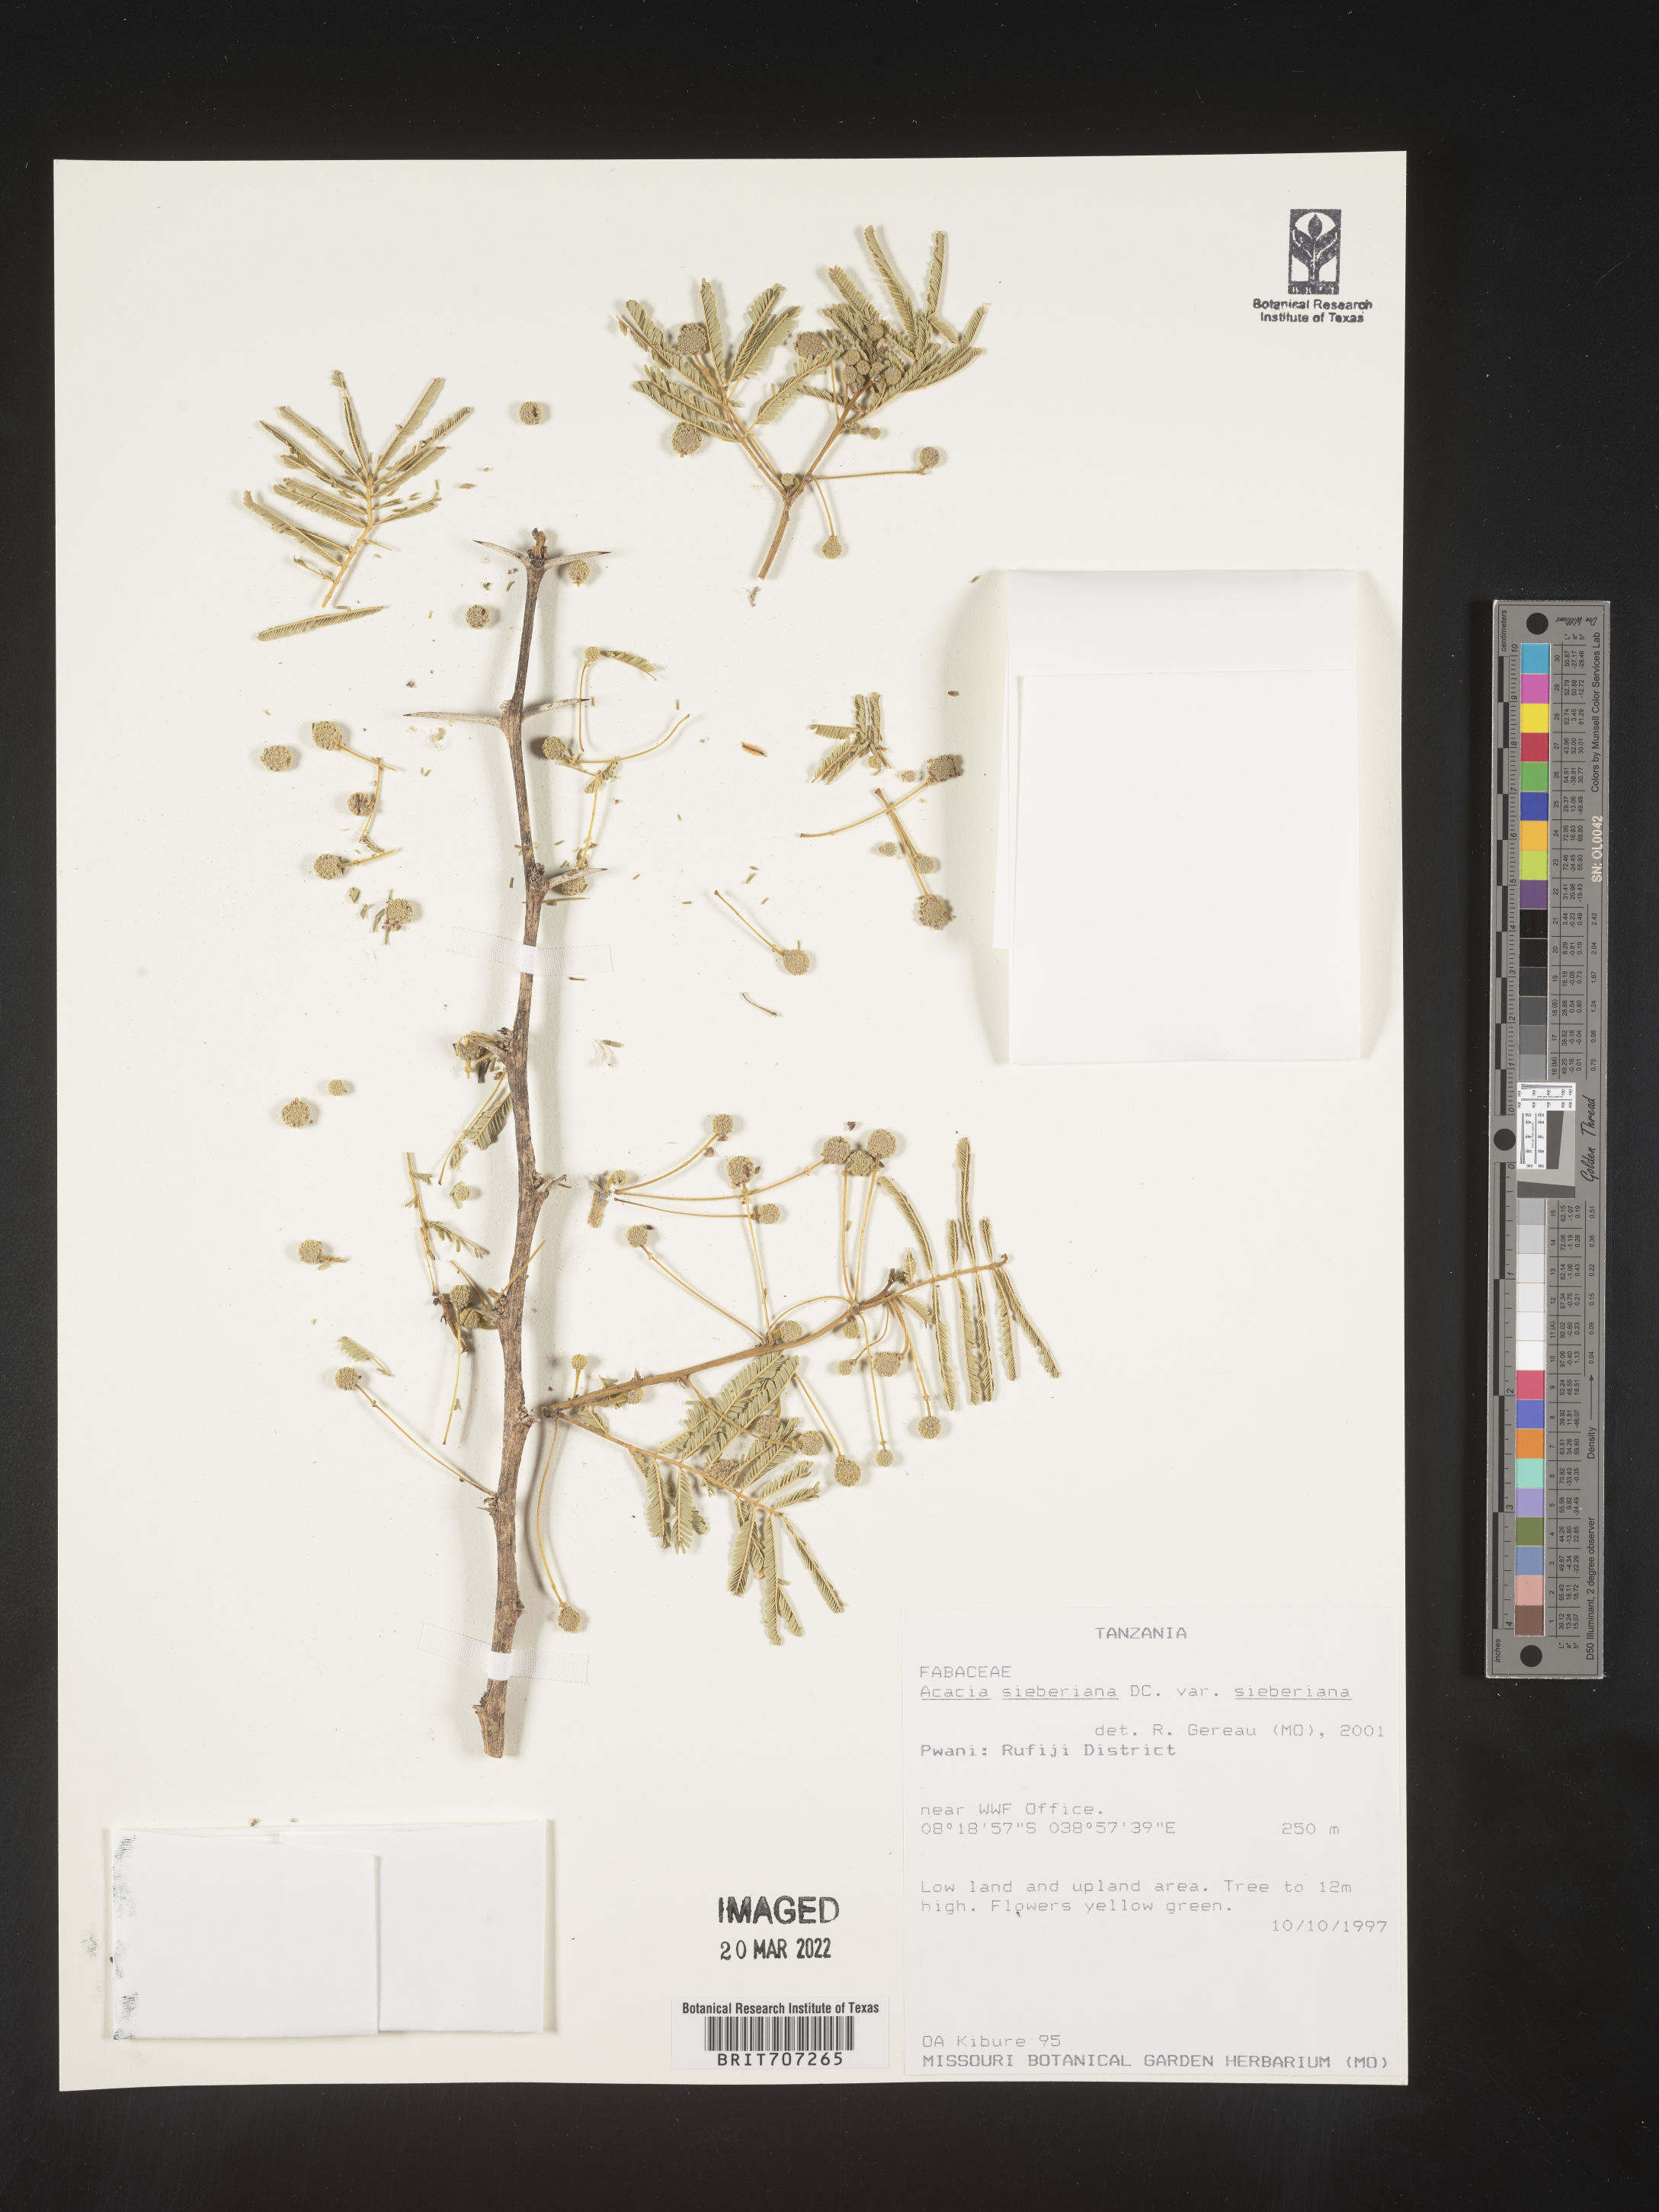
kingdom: Plantae
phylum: Tracheophyta
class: Magnoliopsida
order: Fabales
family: Fabaceae
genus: Acacia
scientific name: Acacia
